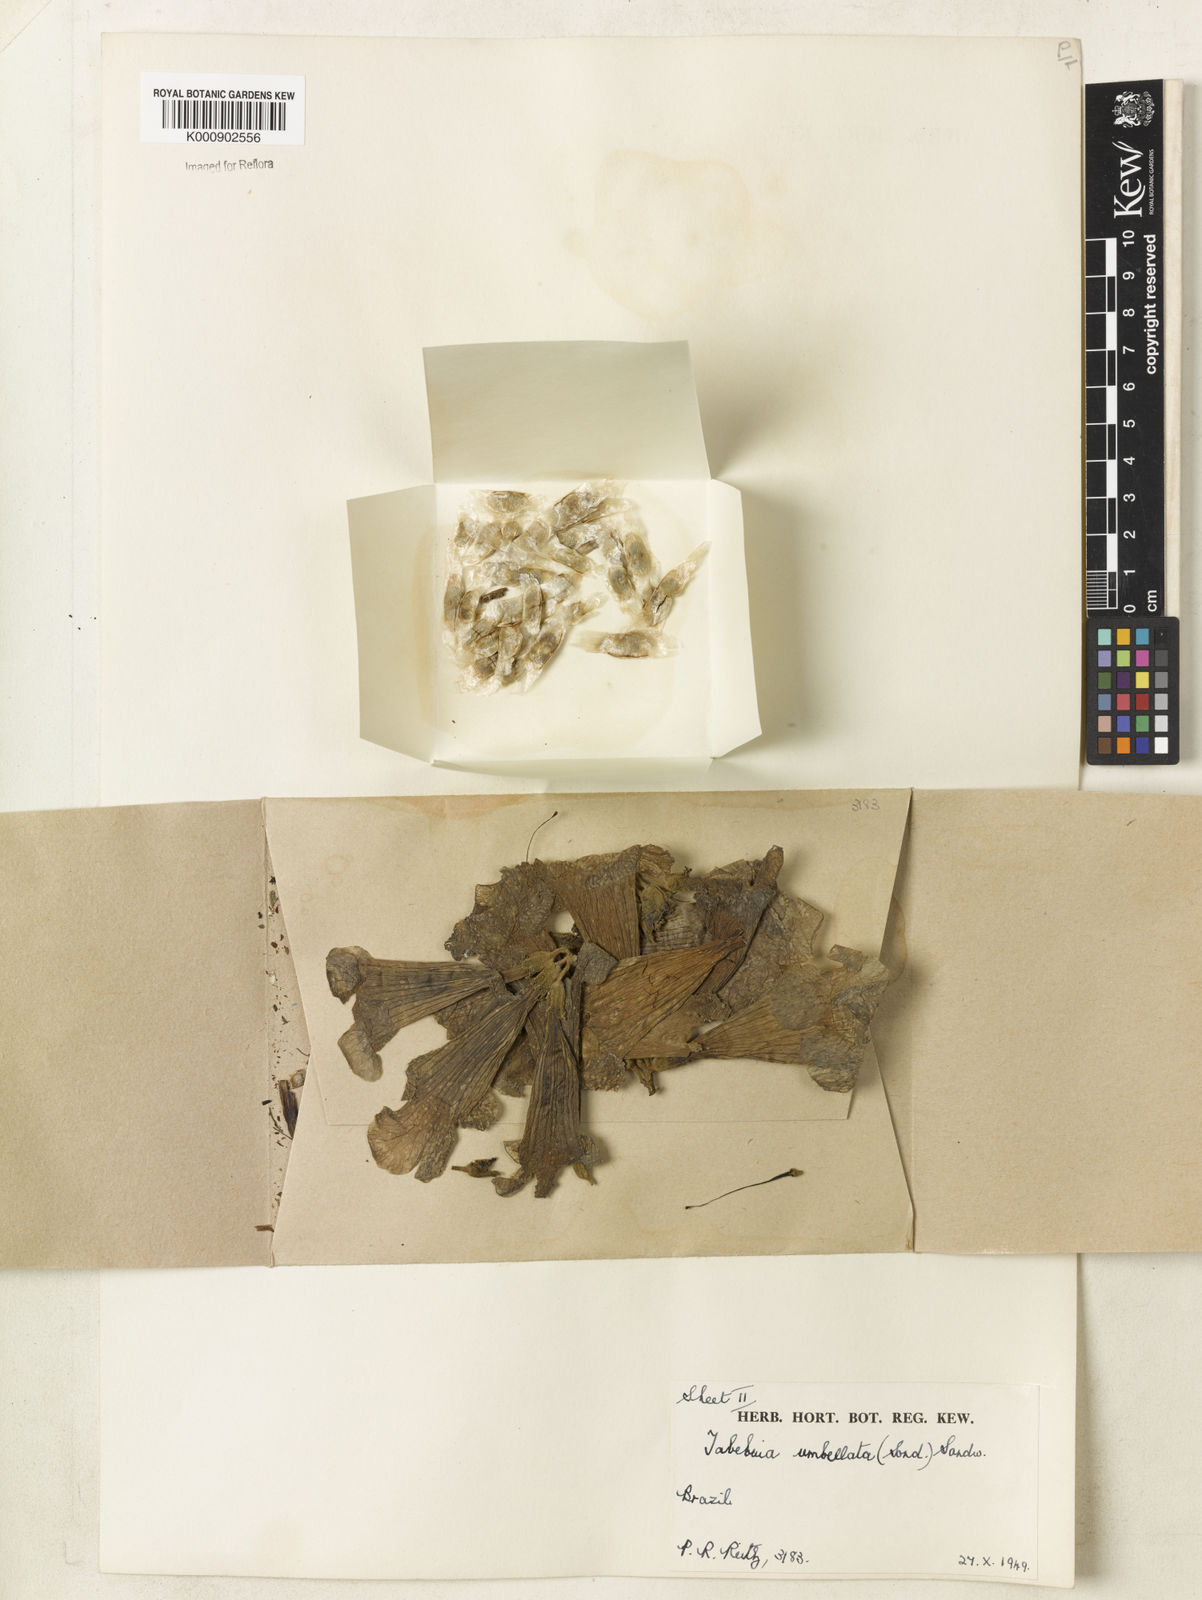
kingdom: Plantae
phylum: Tracheophyta
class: Magnoliopsida
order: Lamiales
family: Bignoniaceae
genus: Handroanthus
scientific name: Handroanthus umbellatus
